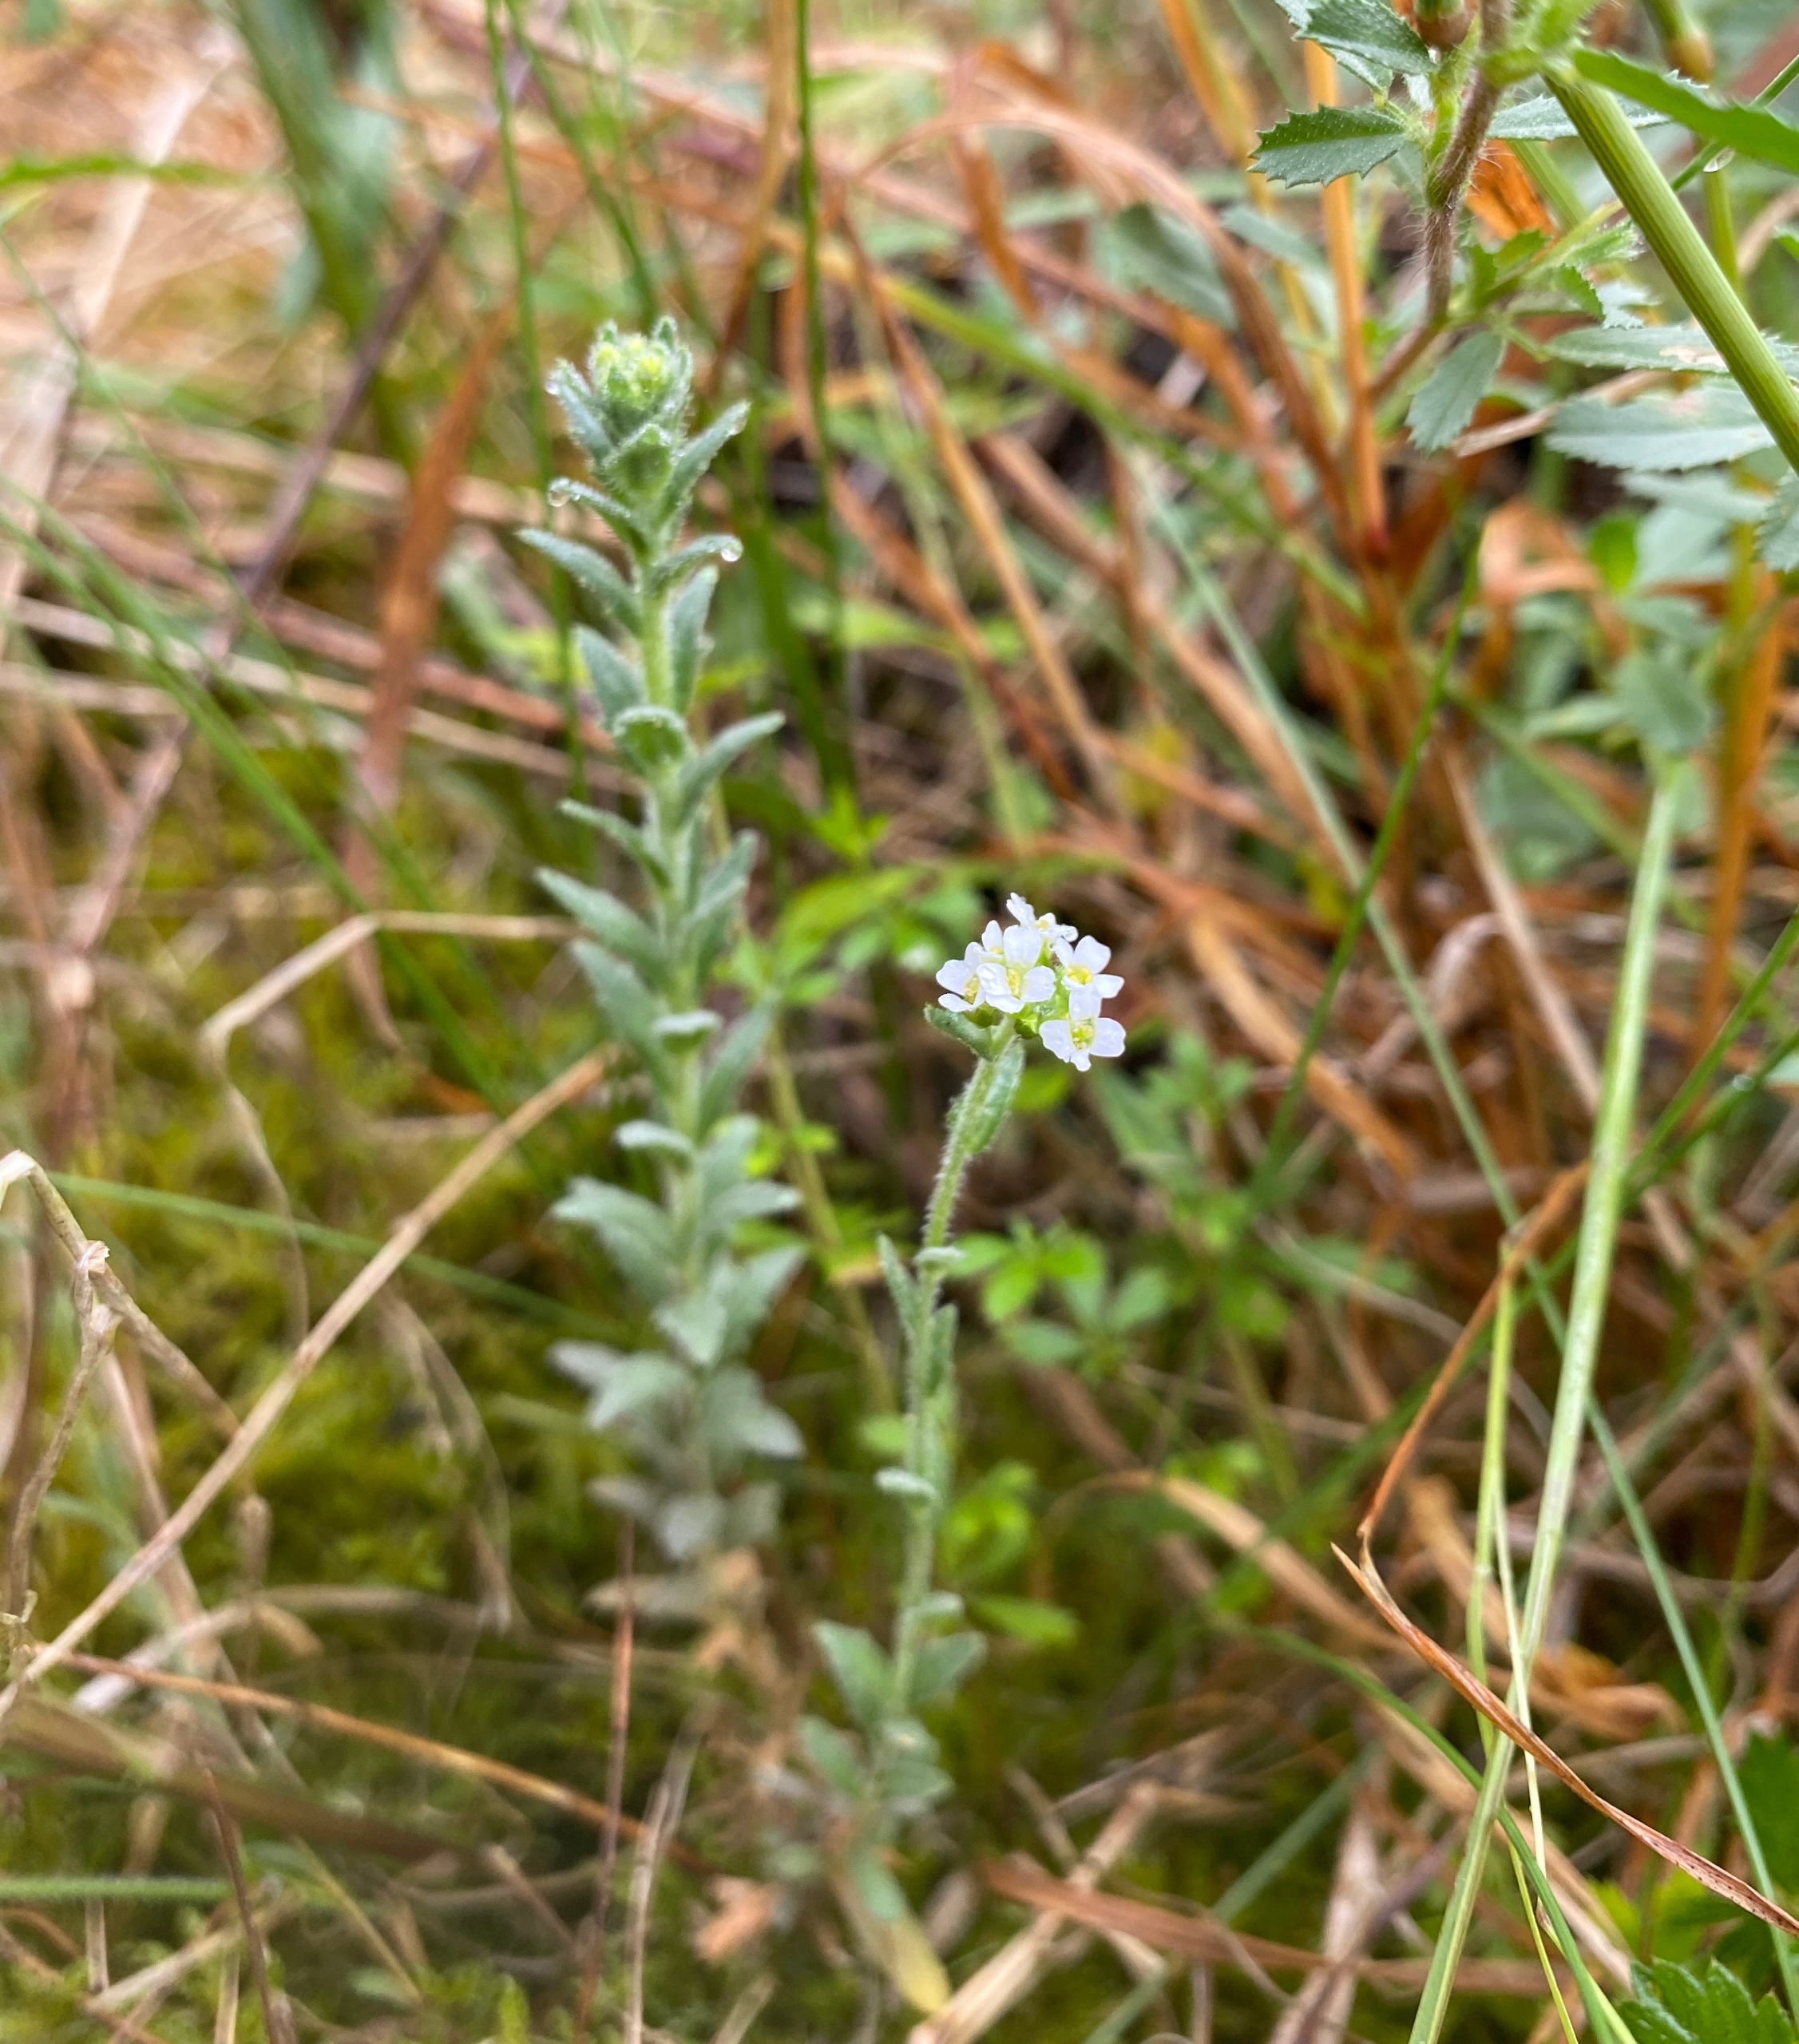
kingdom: Plantae
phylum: Tracheophyta
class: Magnoliopsida
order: Brassicales
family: Brassicaceae
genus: Draba
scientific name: Draba incana
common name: Hvidgrå draba
